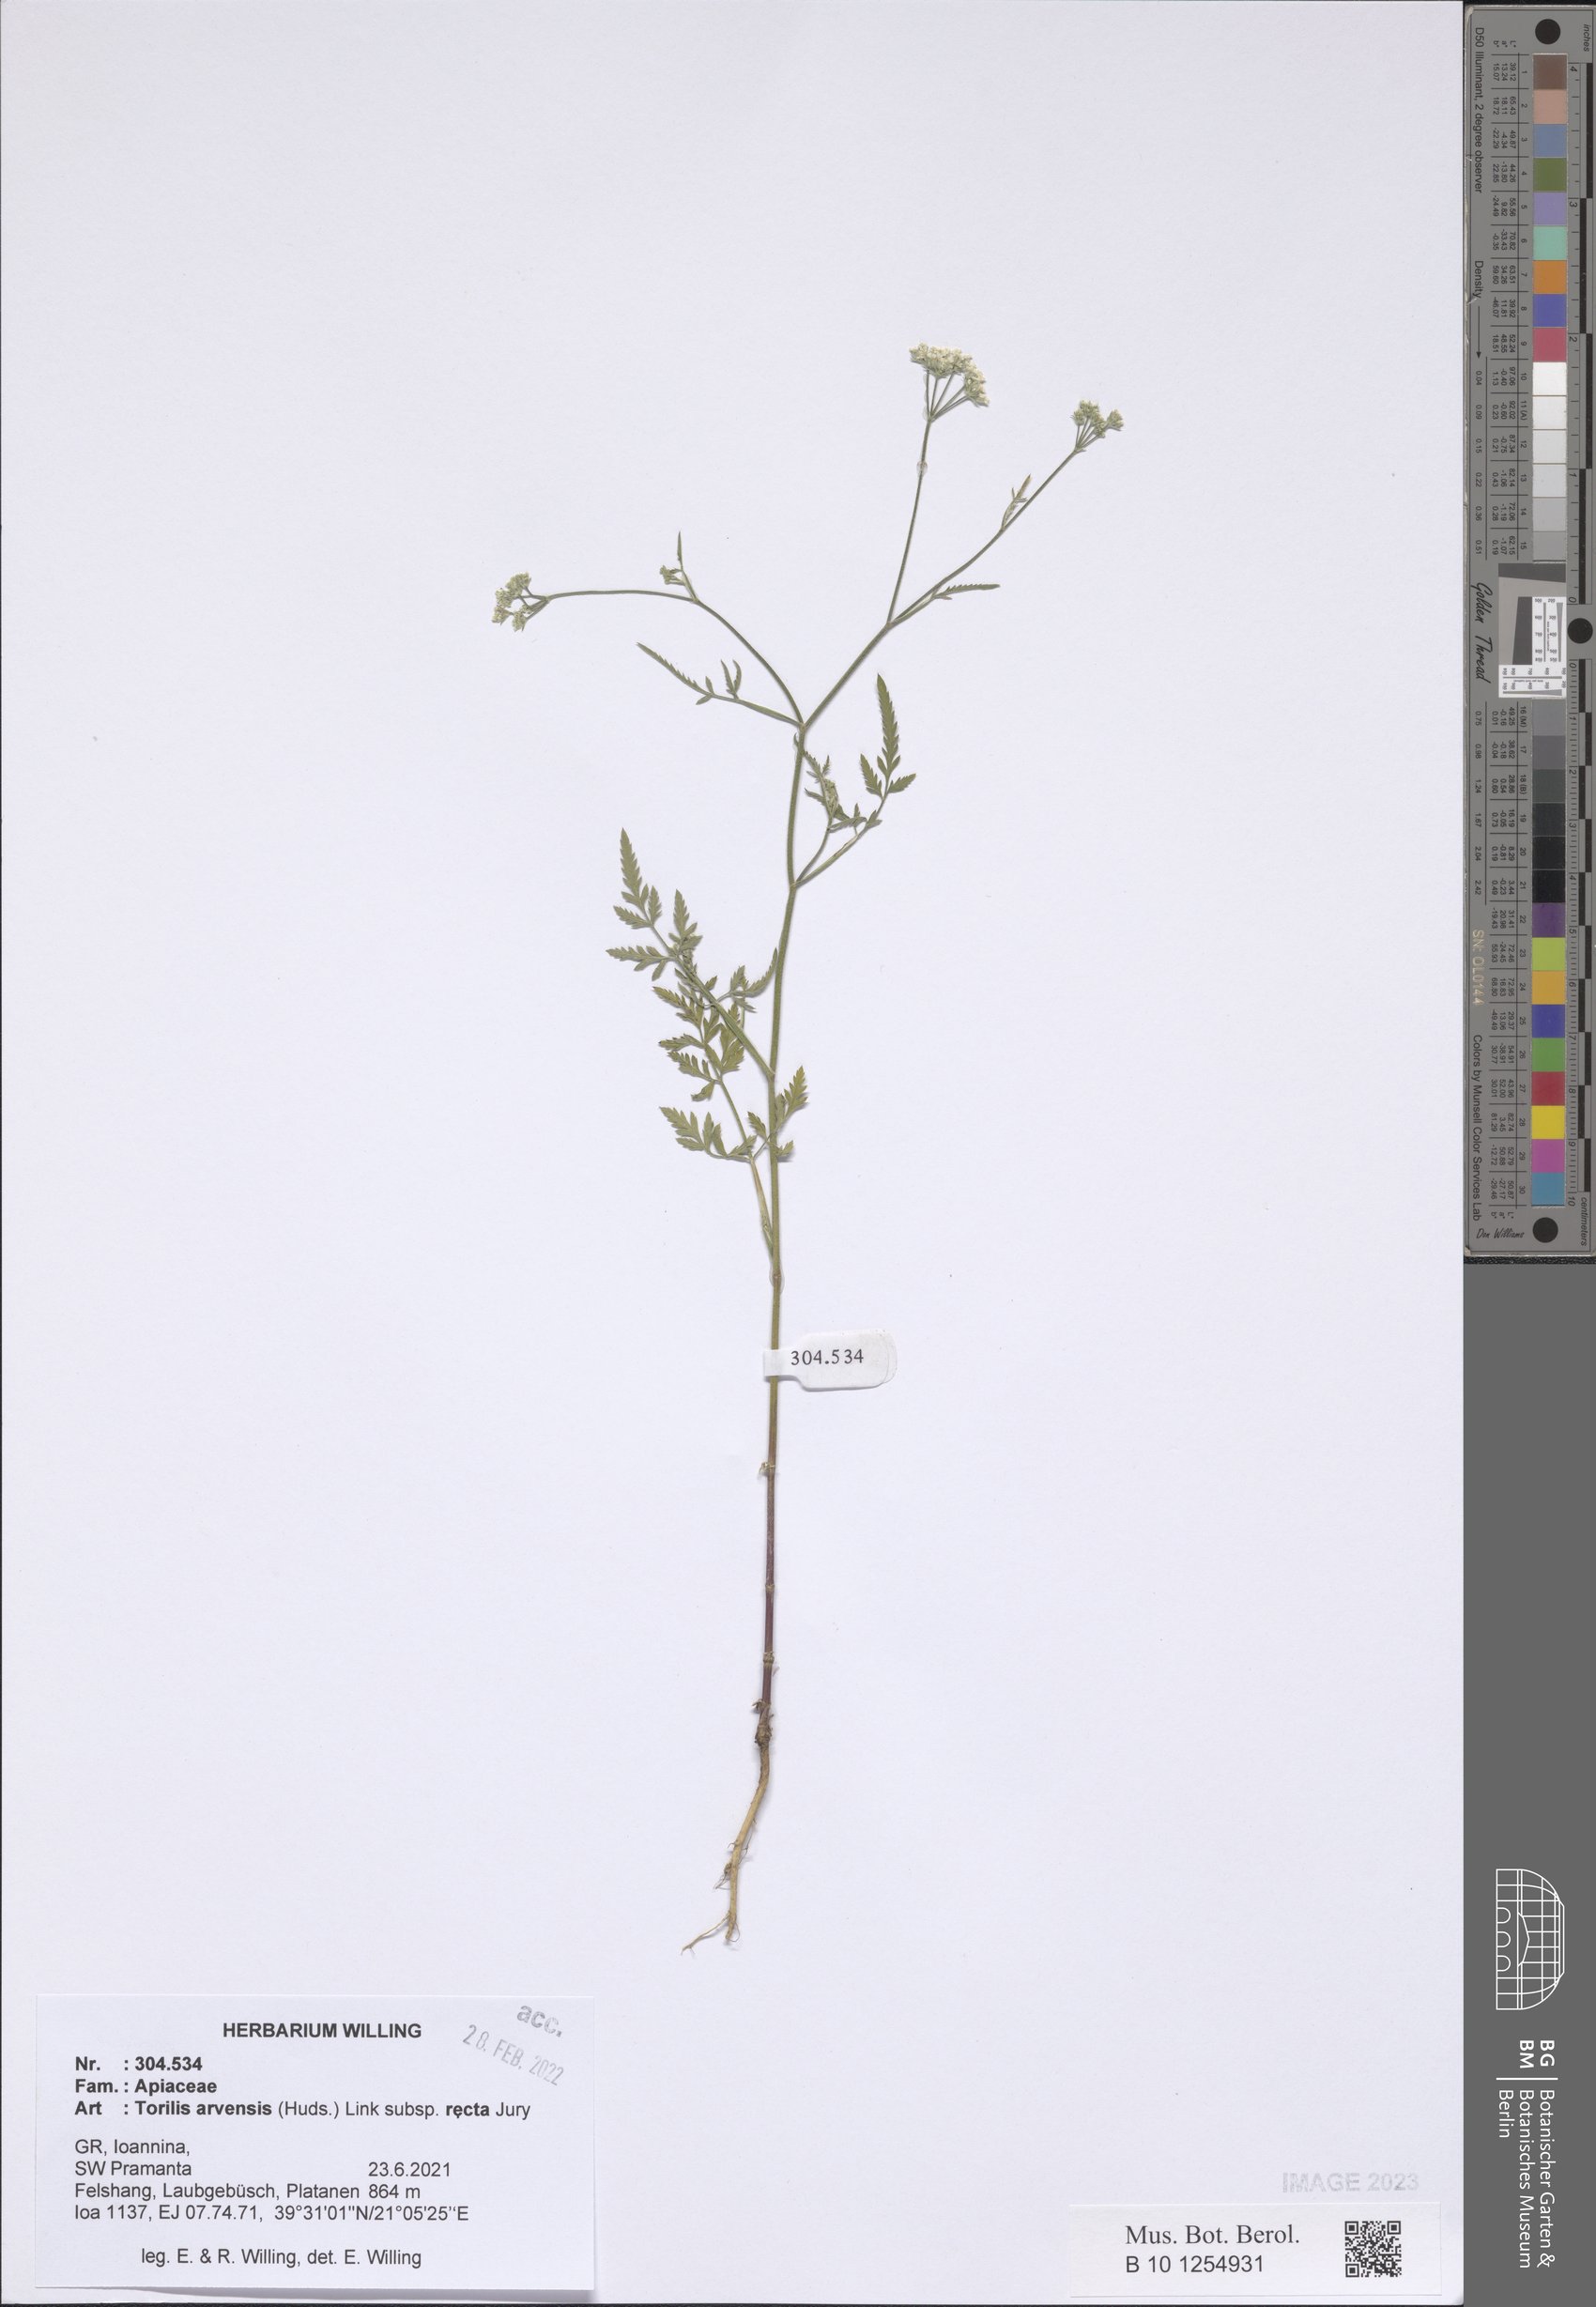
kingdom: Plantae
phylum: Tracheophyta
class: Magnoliopsida
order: Apiales
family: Apiaceae
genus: Torilis
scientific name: Torilis arvensis
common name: Spreading hedge-parsley
